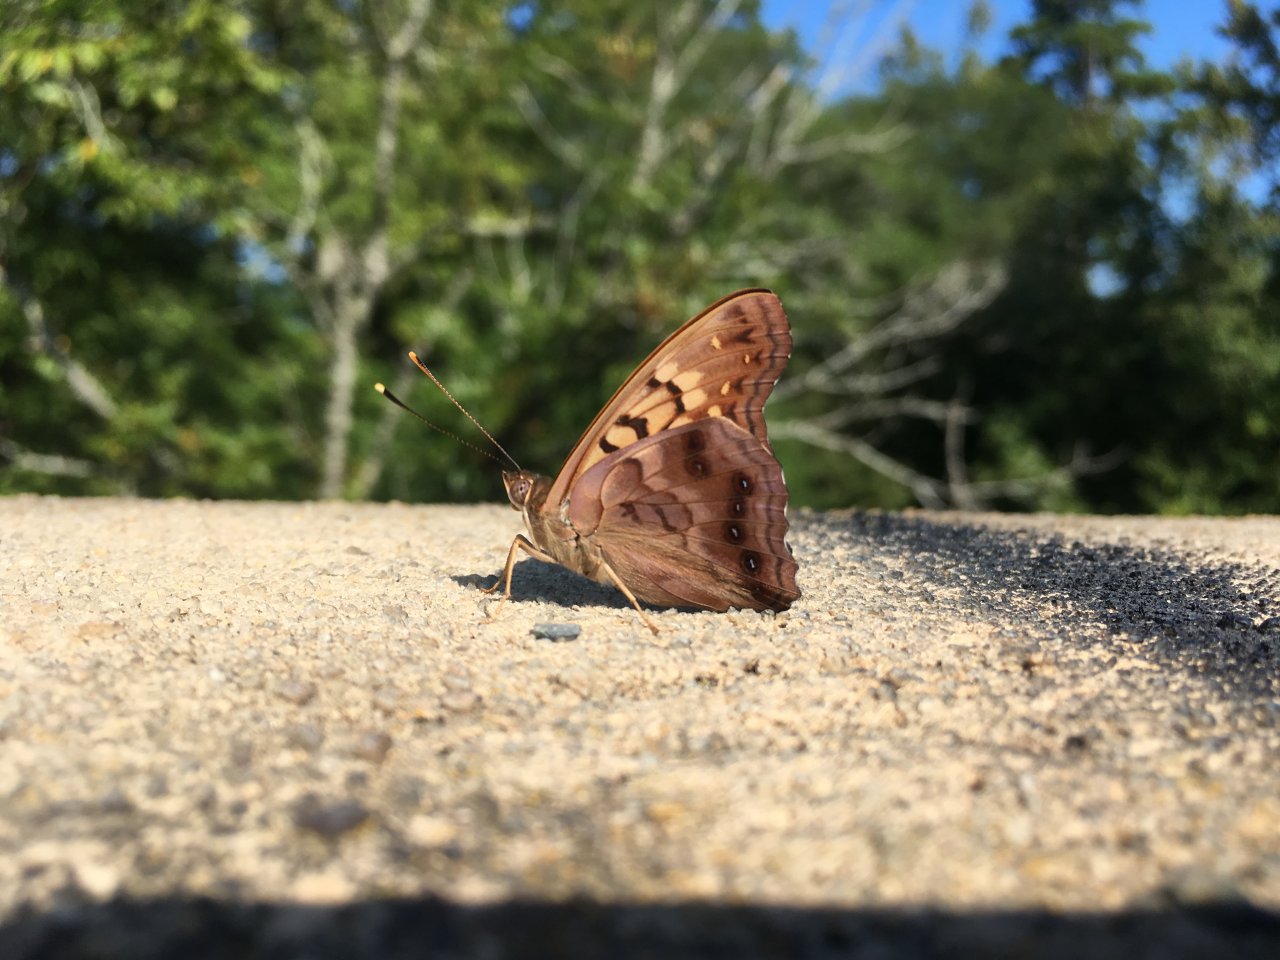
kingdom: Animalia
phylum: Arthropoda
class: Insecta
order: Lepidoptera
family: Nymphalidae
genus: Asterocampa
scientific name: Asterocampa clyton
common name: Tawny Emperor
